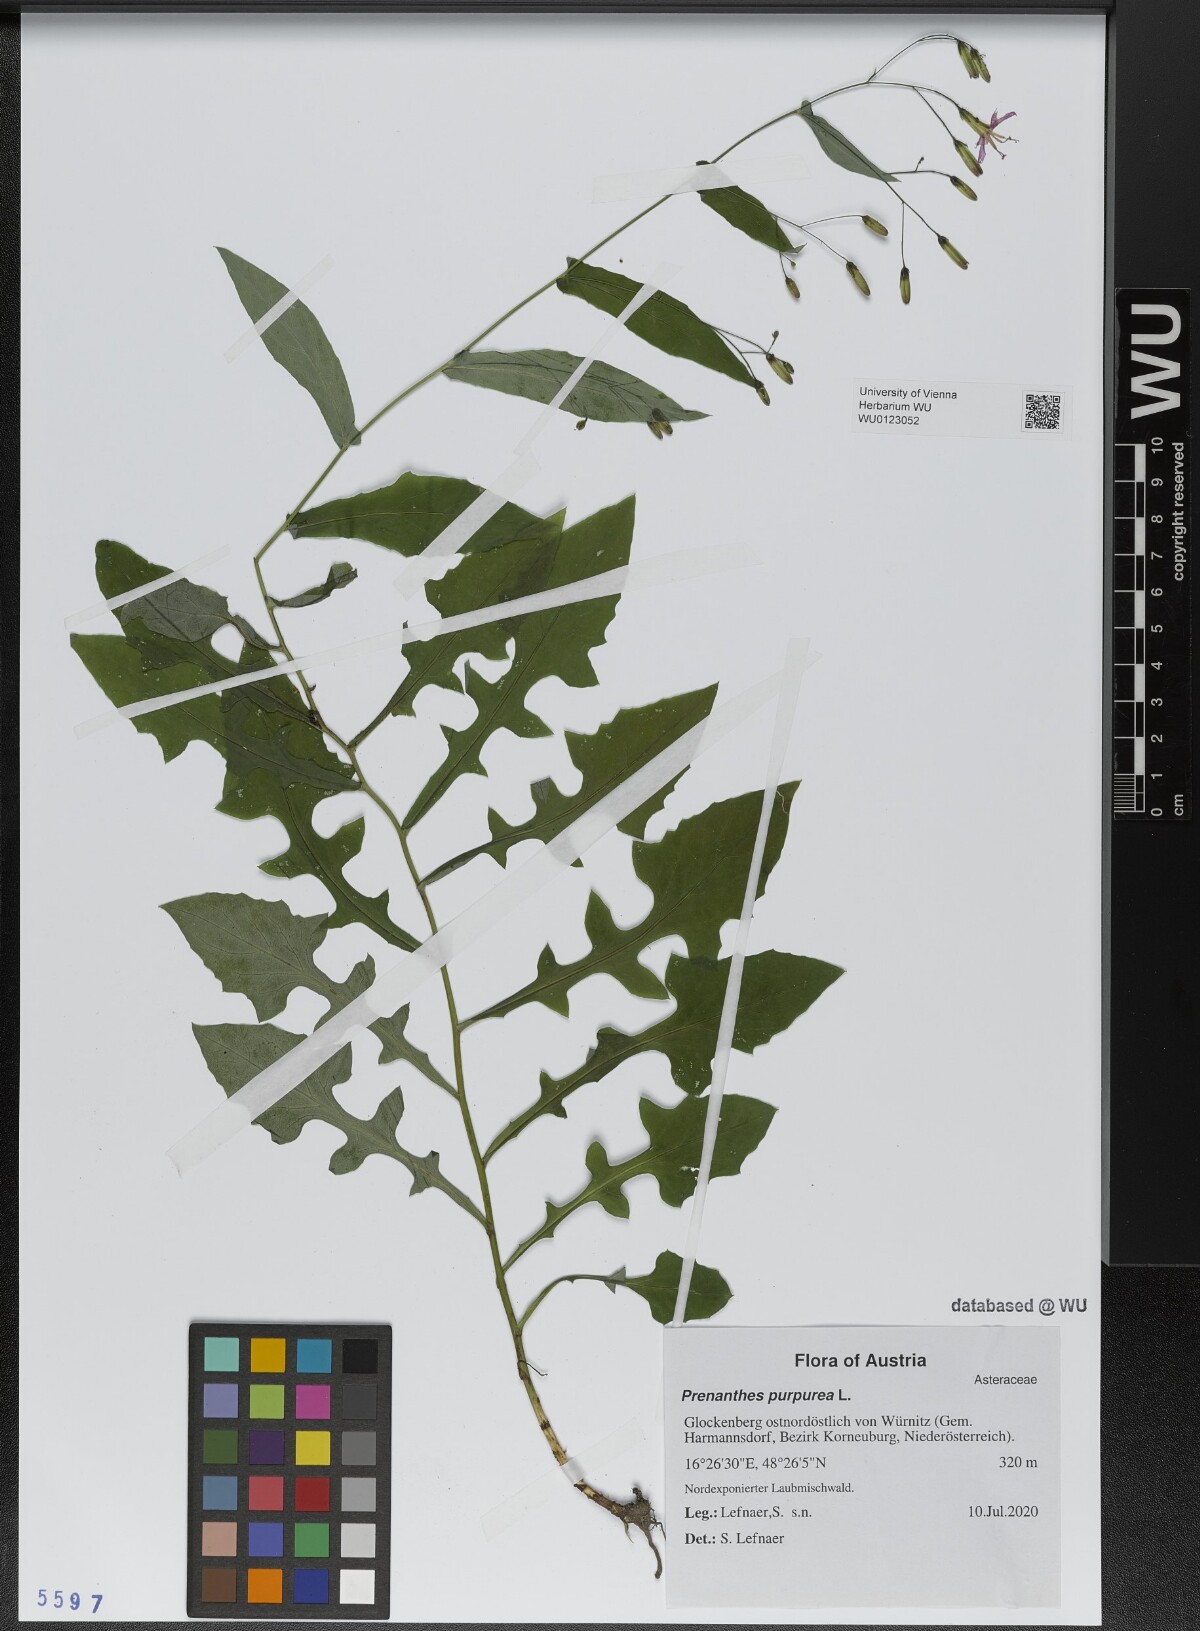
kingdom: Plantae
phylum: Tracheophyta
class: Magnoliopsida
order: Asterales
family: Asteraceae
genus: Prenanthes
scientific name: Prenanthes purpurea
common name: Purple lettuce
